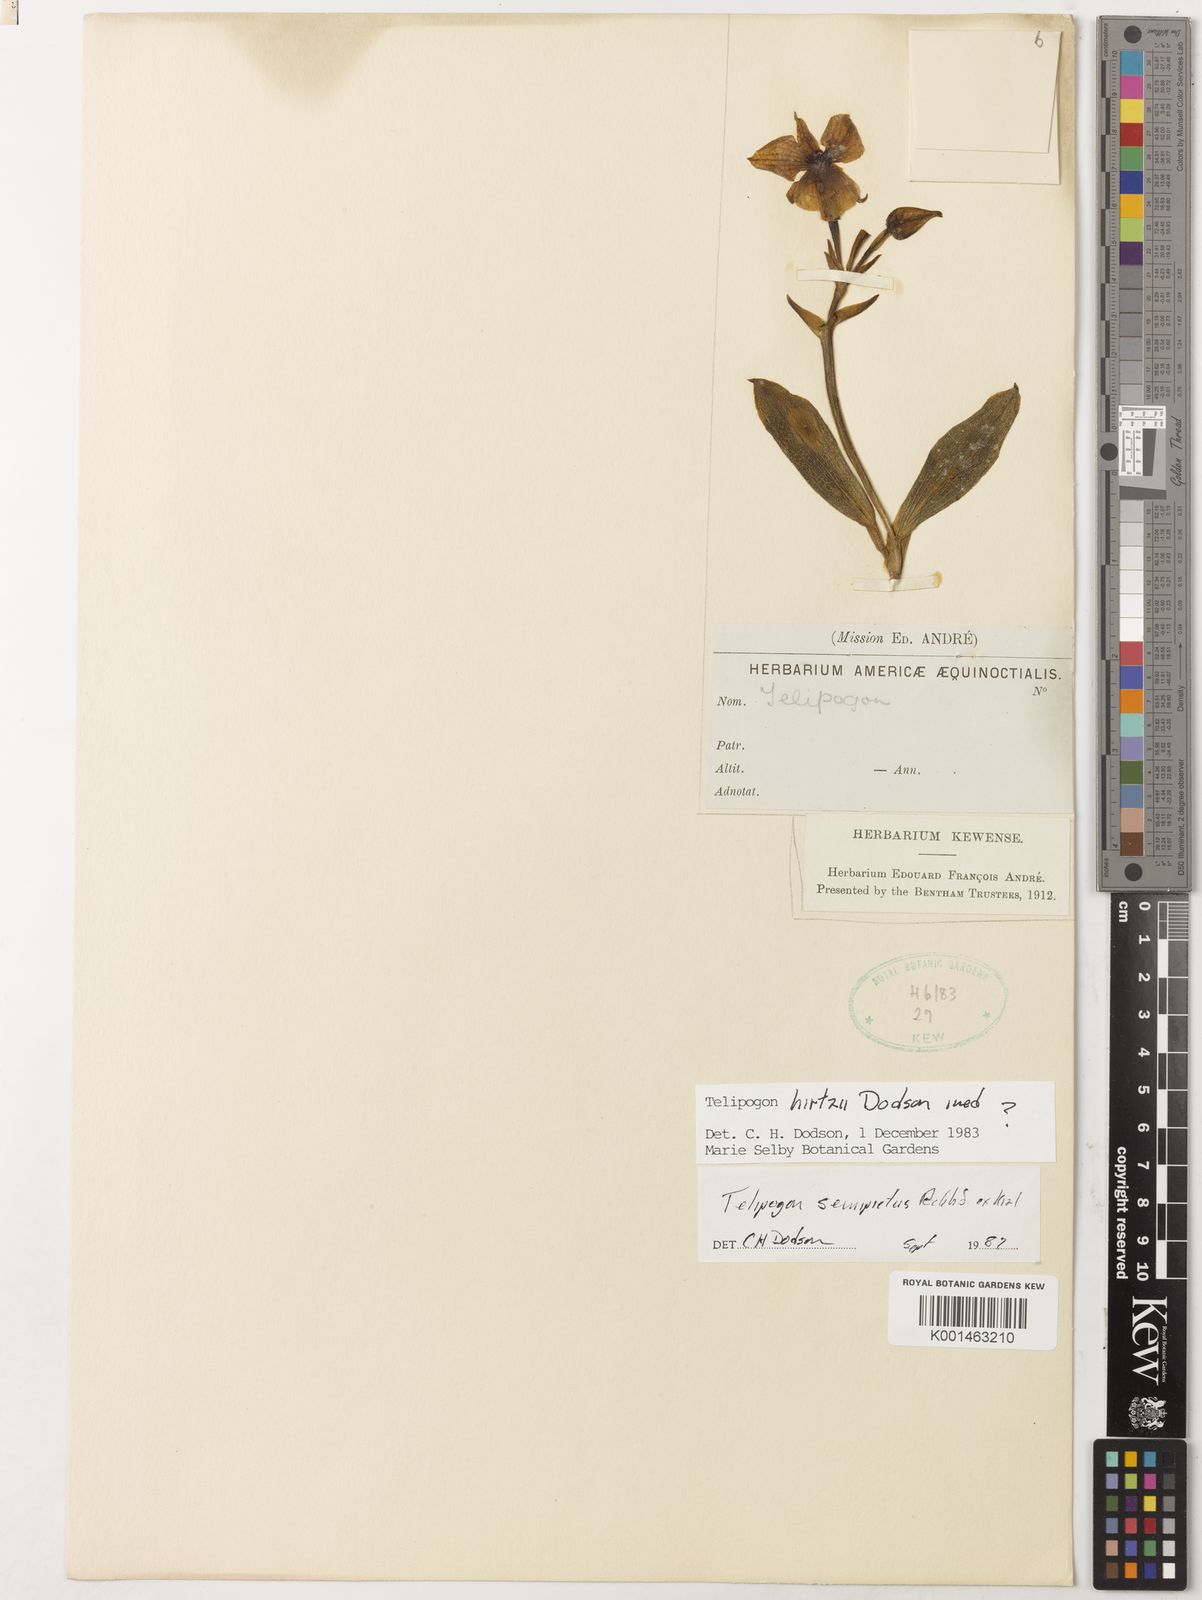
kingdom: Plantae
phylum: Tracheophyta
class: Liliopsida
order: Asparagales
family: Orchidaceae
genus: Telipogon
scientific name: Telipogon semipictus
